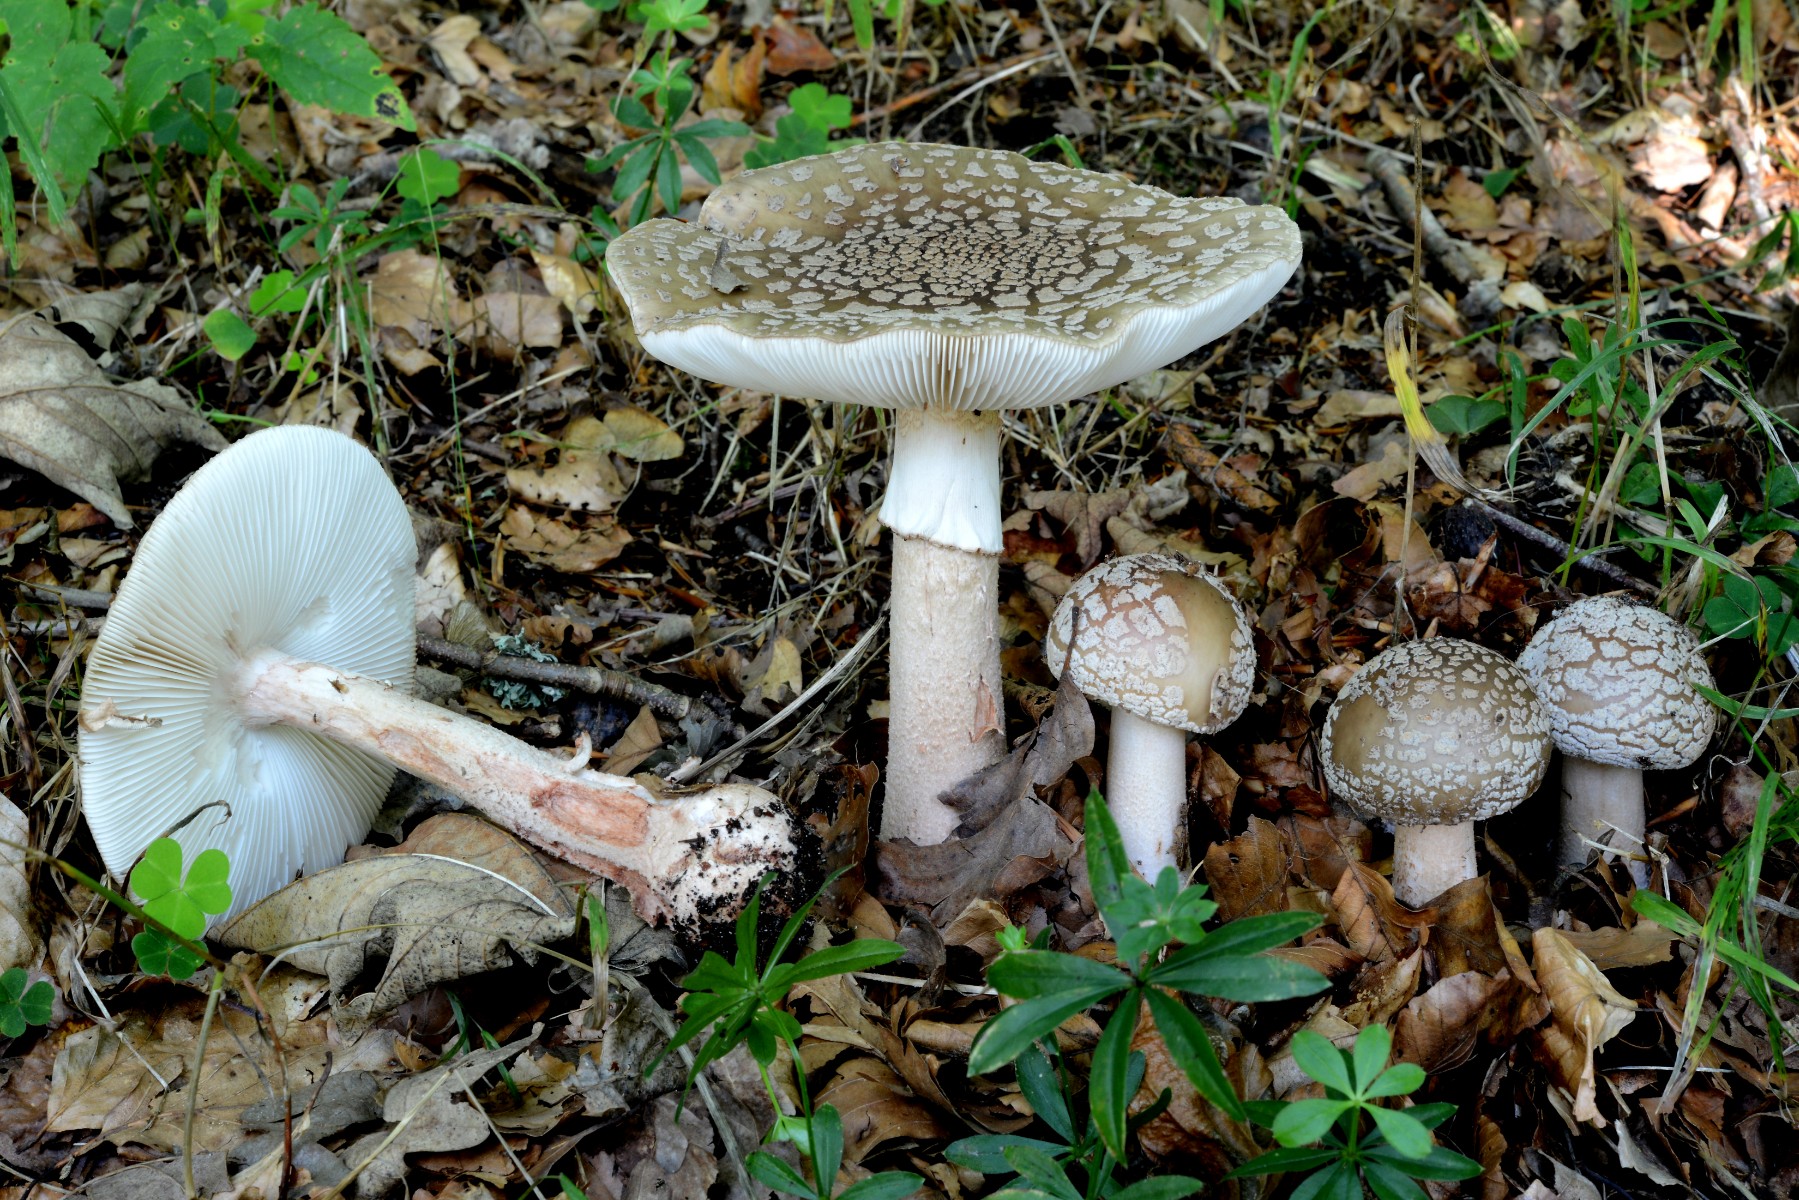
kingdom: Fungi
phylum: Basidiomycota
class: Agaricomycetes
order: Agaricales
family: Amanitaceae
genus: Amanita
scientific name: Amanita rubescens
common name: rødmende fluesvamp
